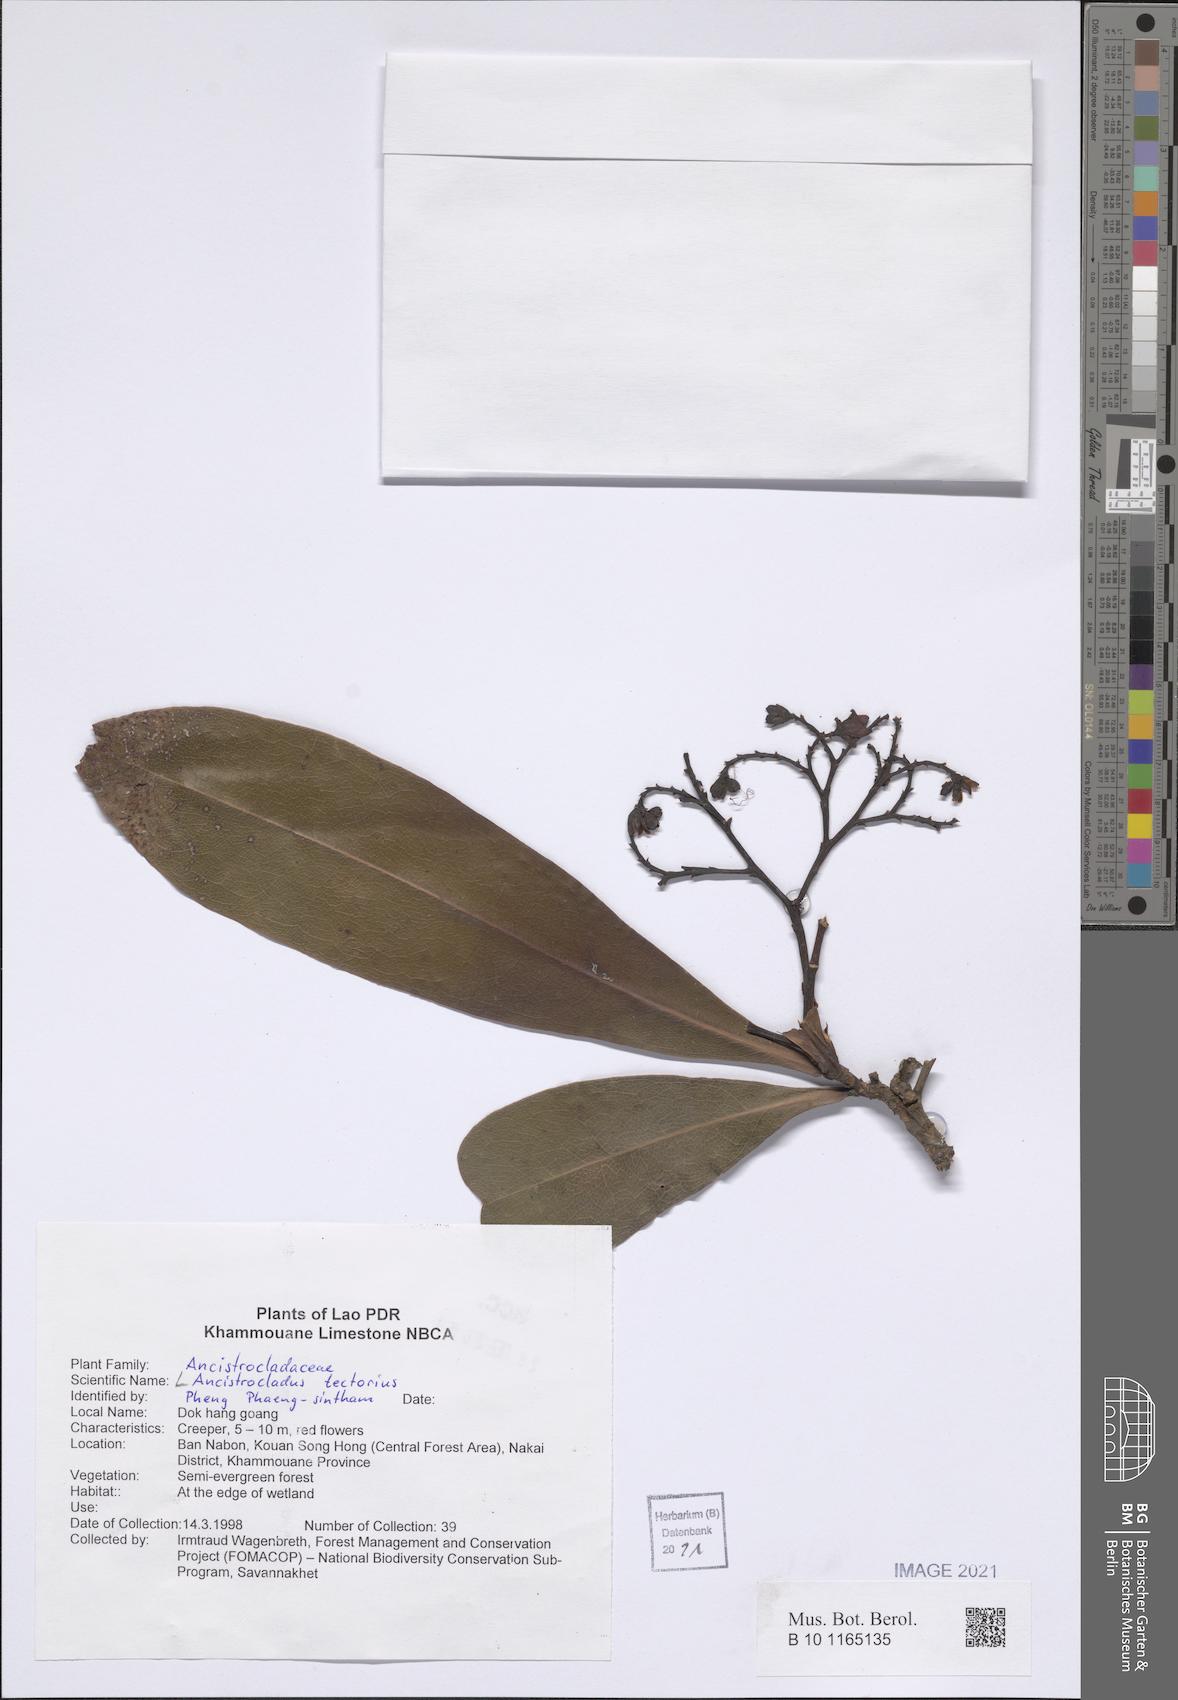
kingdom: Plantae
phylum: Tracheophyta
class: Magnoliopsida
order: Caryophyllales
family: Ancistrocladaceae
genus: Ancistrocladus
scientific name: Ancistrocladus tectorius
